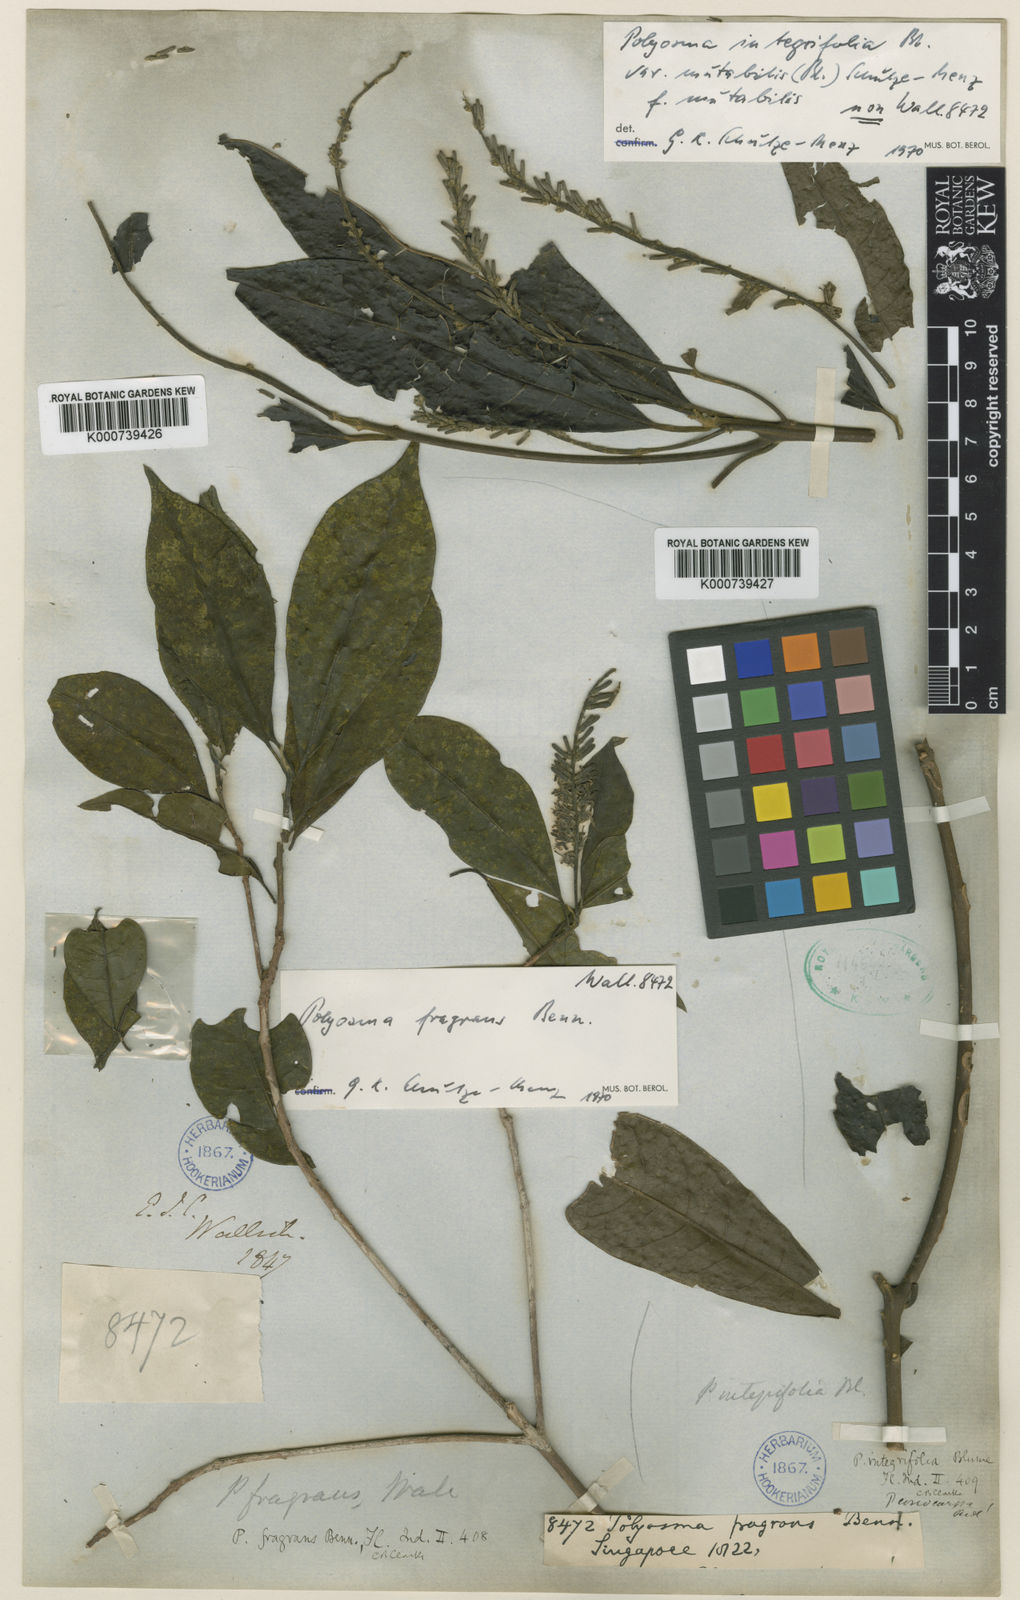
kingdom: Plantae
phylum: Tracheophyta
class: Magnoliopsida
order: Escalloniales
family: Escalloniaceae
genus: Polyosma
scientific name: Polyosma fragrans
